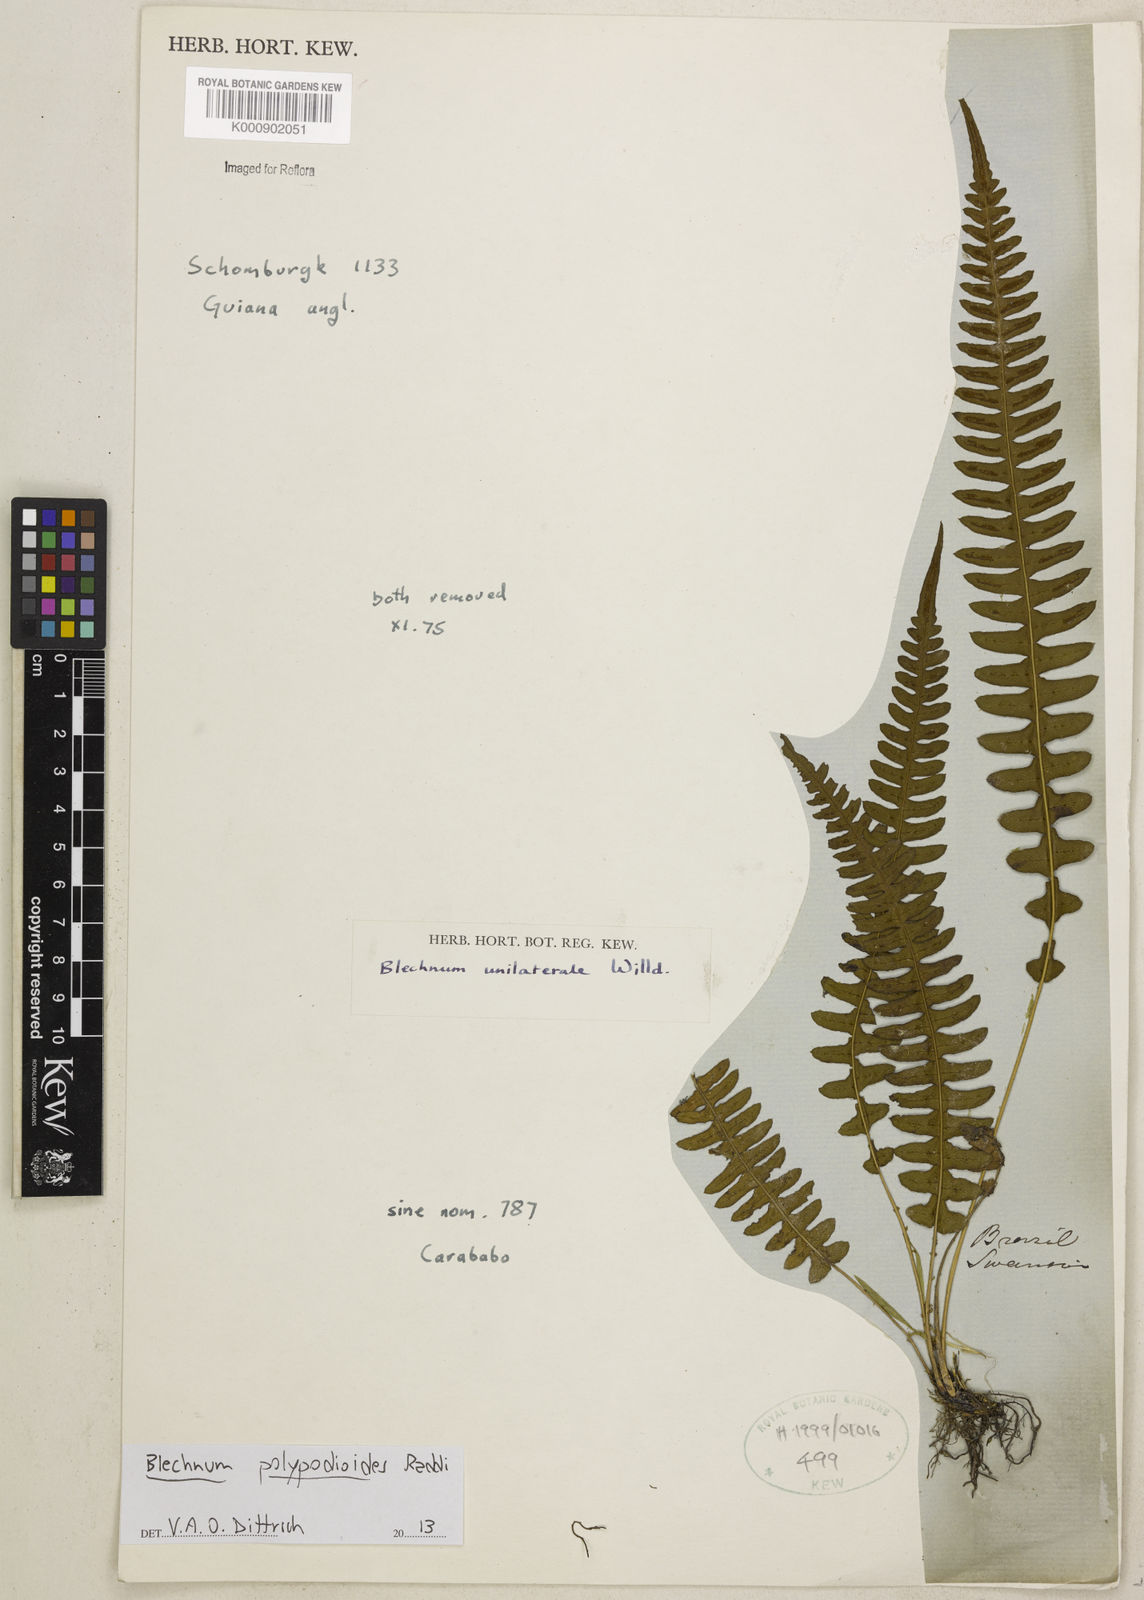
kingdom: Plantae
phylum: Tracheophyta
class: Polypodiopsida
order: Polypodiales
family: Blechnaceae
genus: Blechnum
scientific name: Blechnum polypodioides
